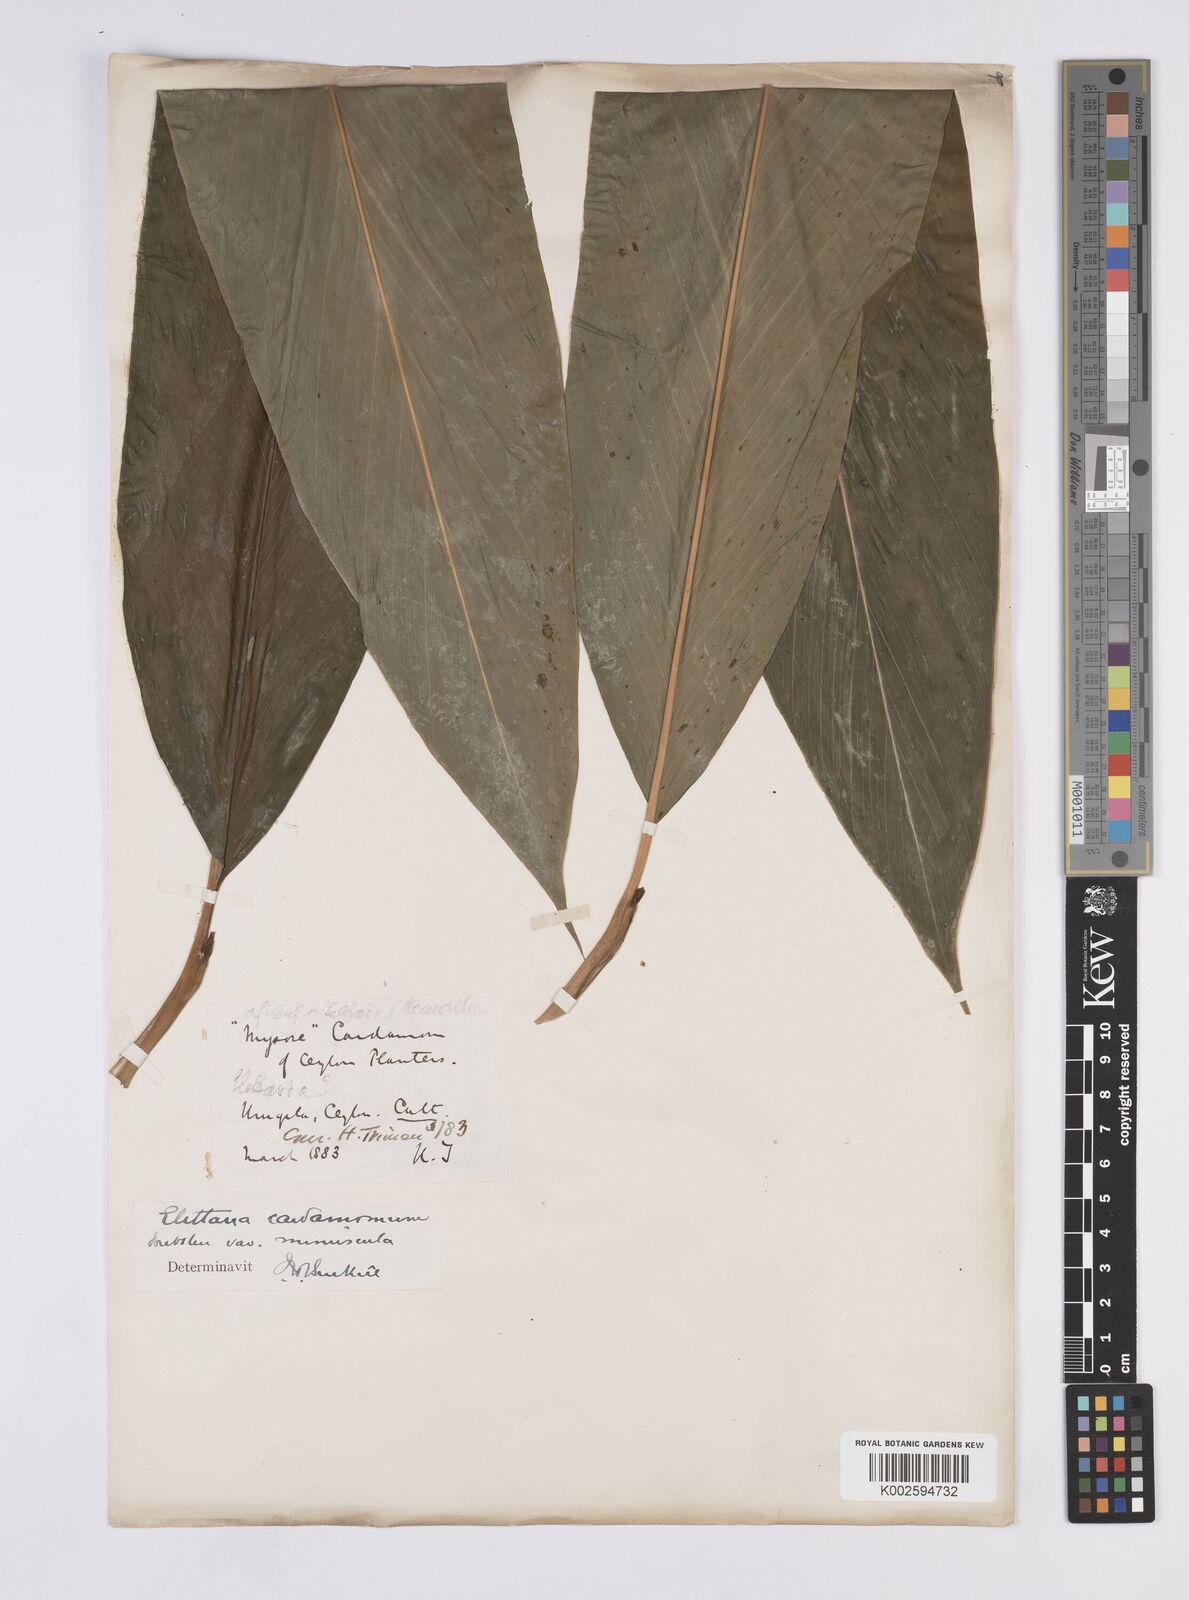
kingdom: Plantae
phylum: Tracheophyta
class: Liliopsida
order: Zingiberales
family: Zingiberaceae
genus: Elettaria
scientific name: Elettaria
